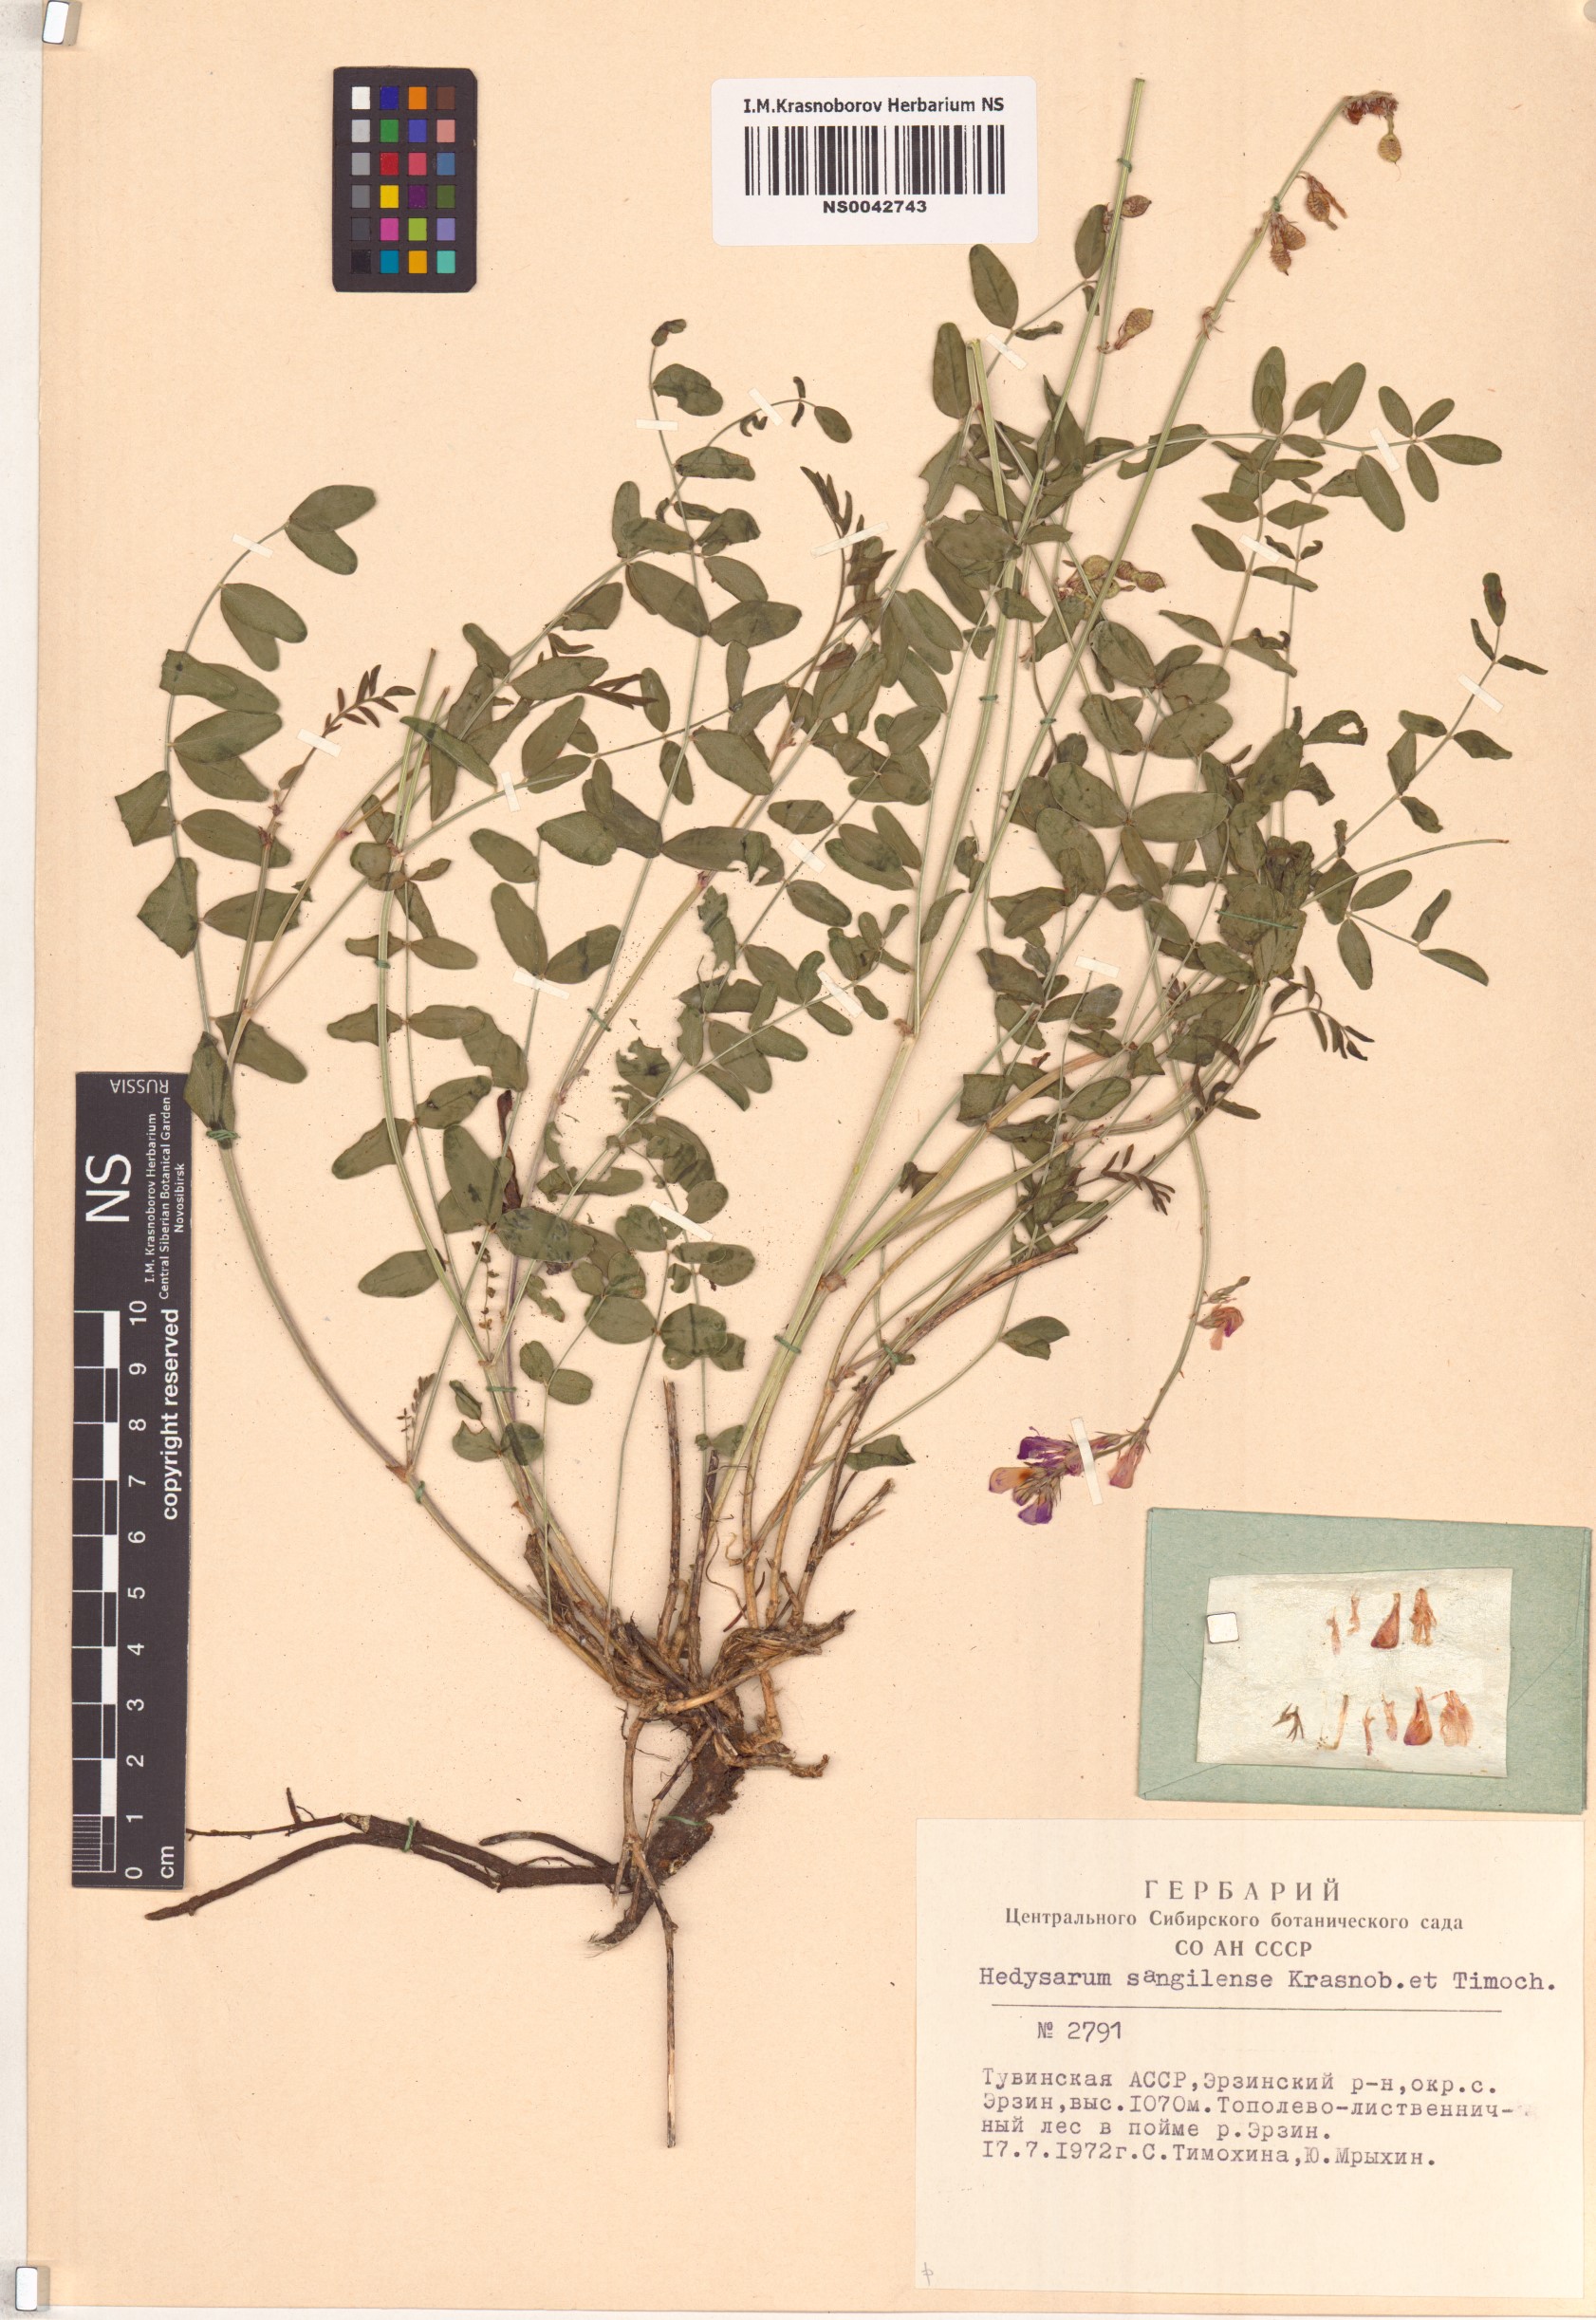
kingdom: Plantae
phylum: Tracheophyta
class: Magnoliopsida
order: Fabales
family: Fabaceae
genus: Hedysarum
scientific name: Hedysarum sangilense
